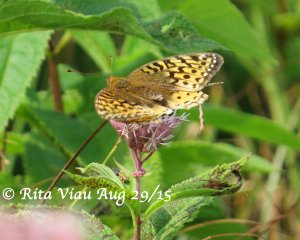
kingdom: Animalia
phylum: Arthropoda
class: Insecta
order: Lepidoptera
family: Nymphalidae
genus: Speyeria
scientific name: Speyeria cybele
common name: Great Spangled Fritillary
